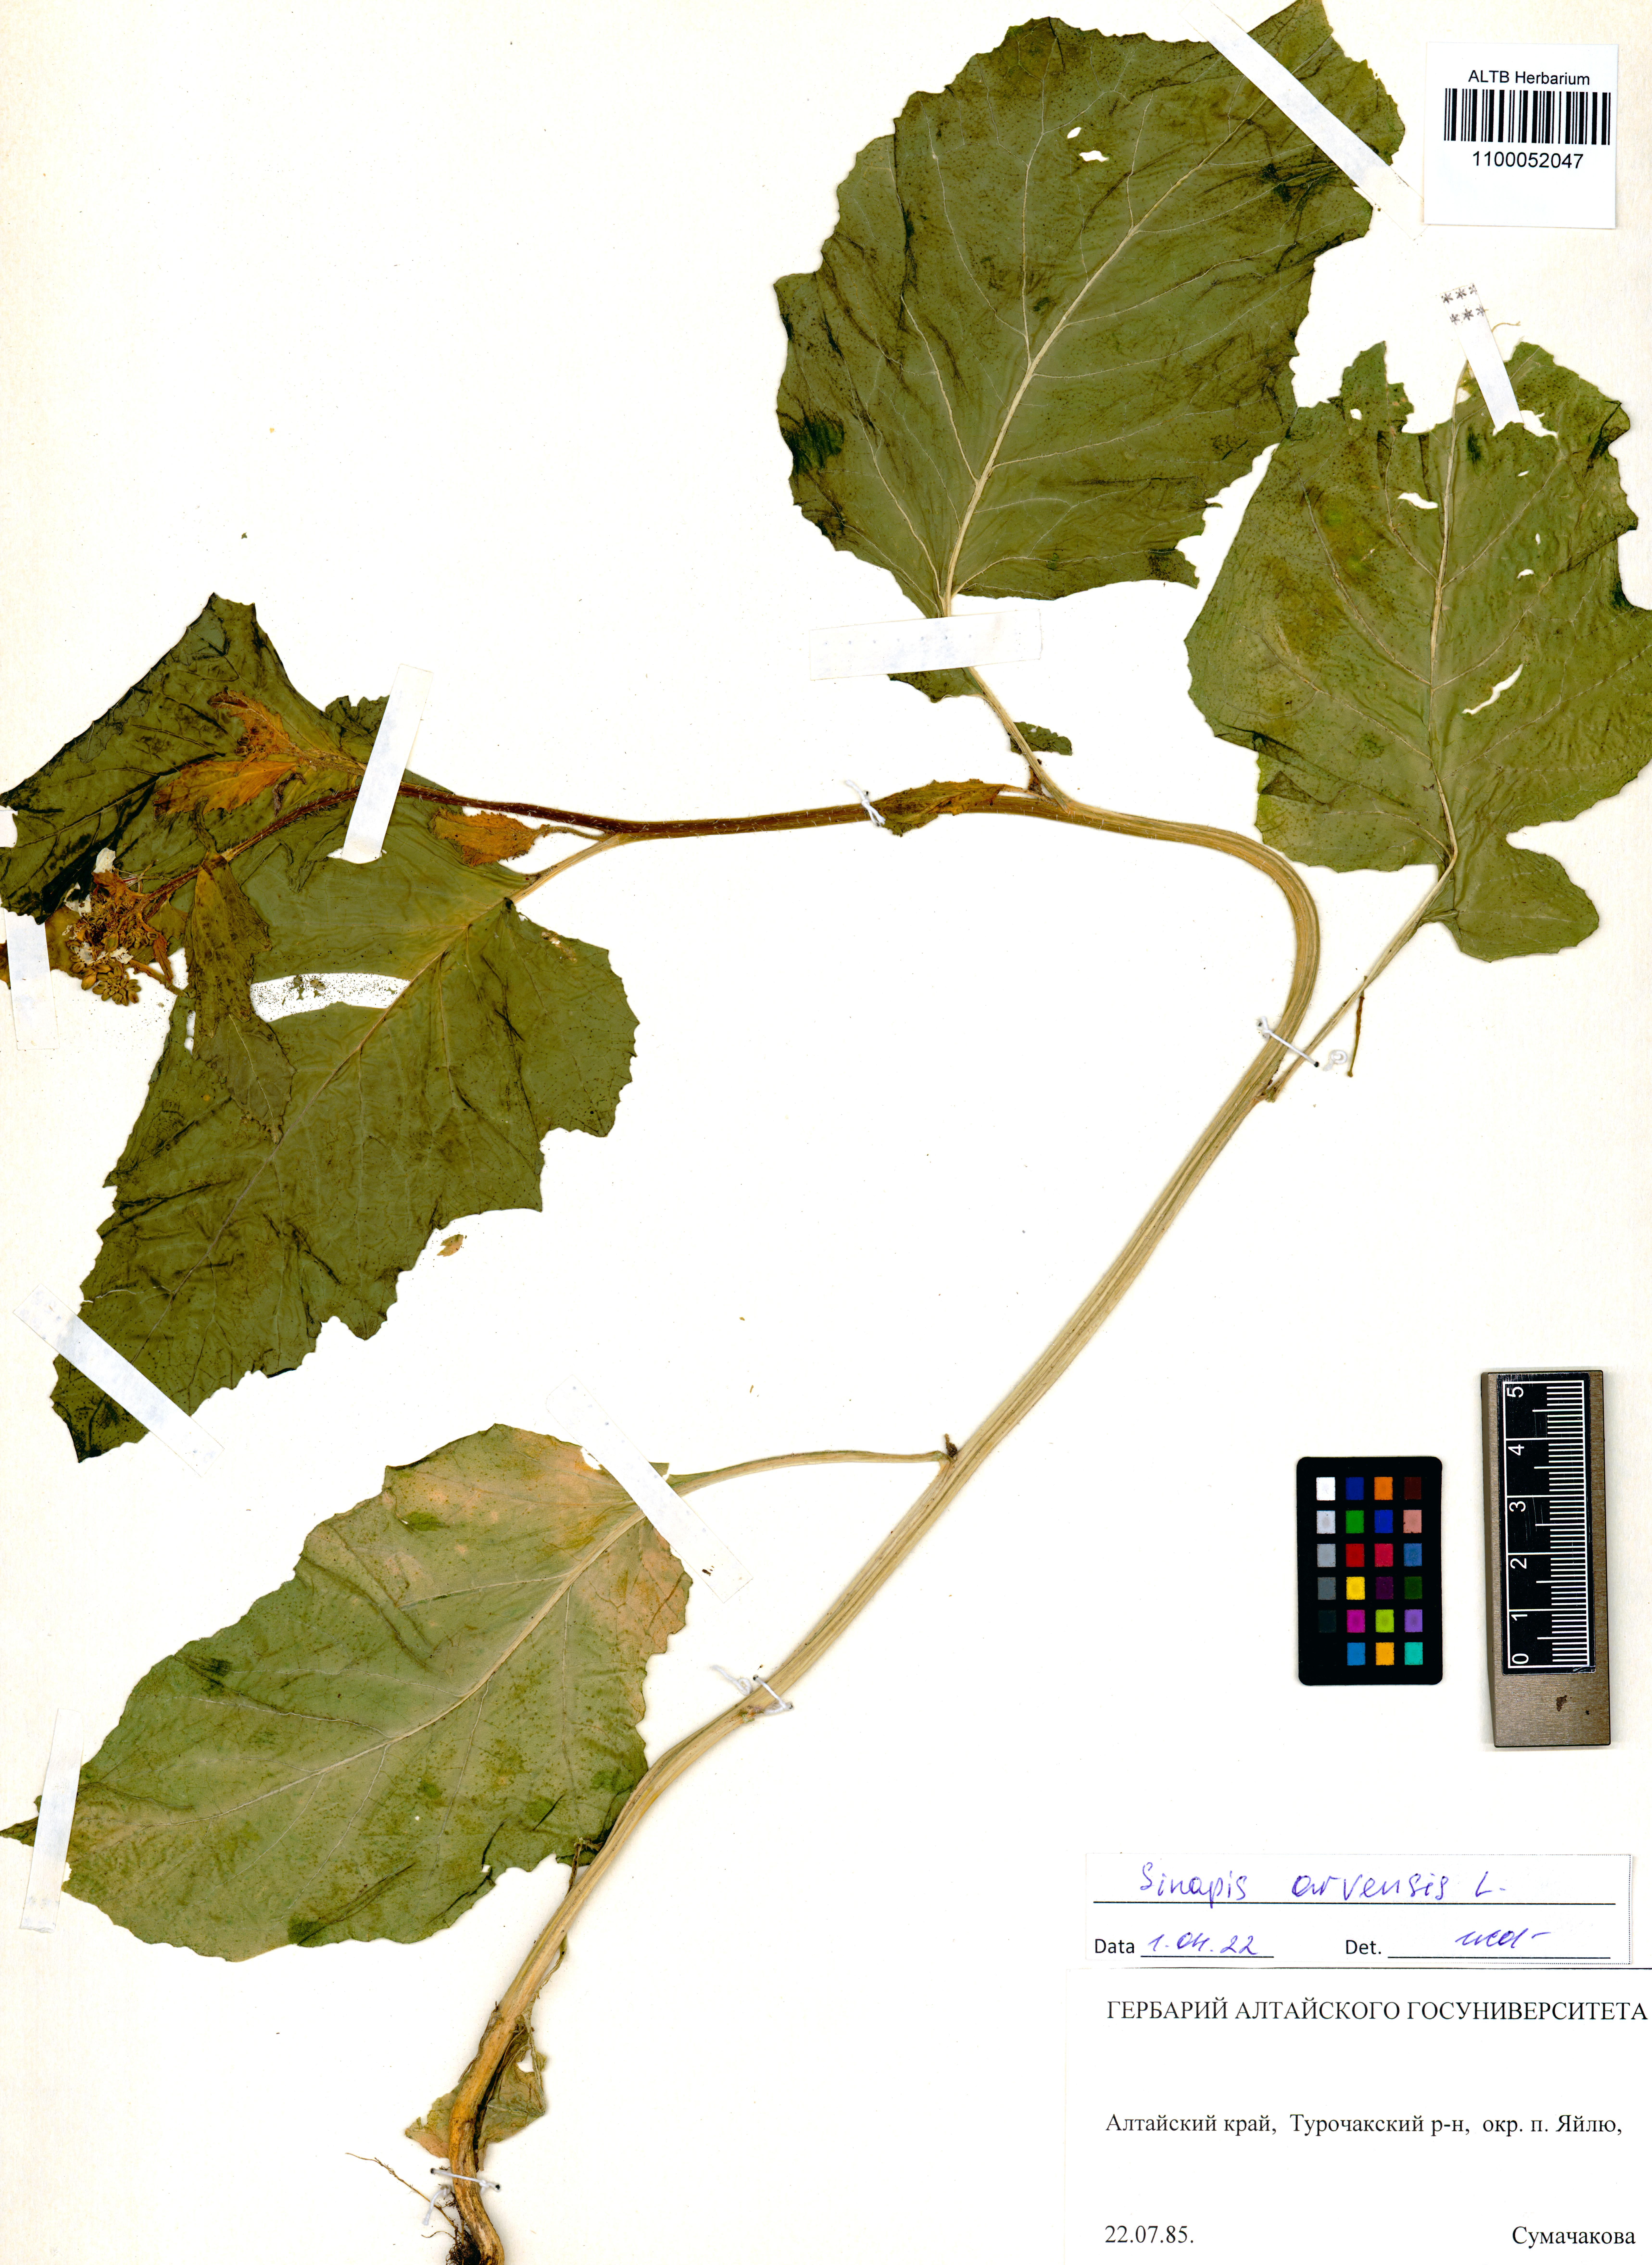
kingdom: Plantae
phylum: Tracheophyta
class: Magnoliopsida
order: Brassicales
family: Brassicaceae
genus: Sinapis
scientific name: Sinapis arvensis
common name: Charlock
